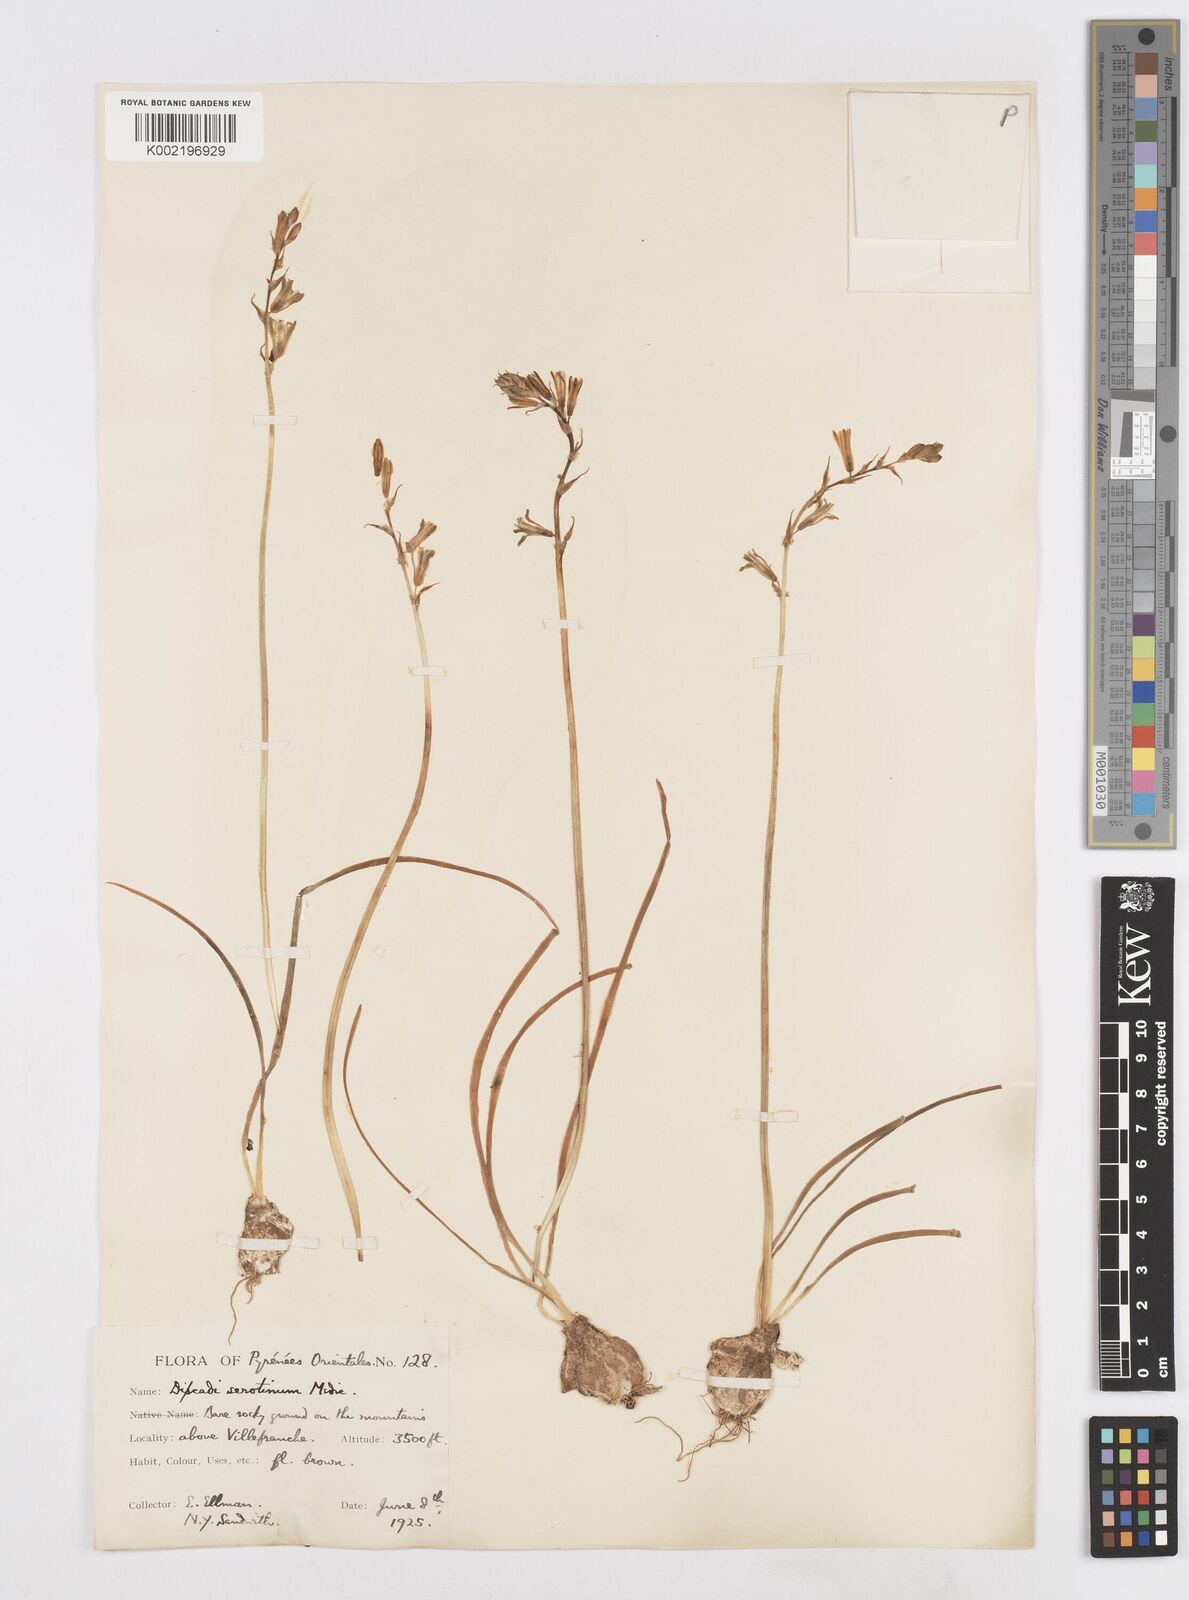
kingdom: Plantae
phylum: Tracheophyta
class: Liliopsida
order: Asparagales
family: Asparagaceae
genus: Dipcadi
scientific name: Dipcadi serotinum
